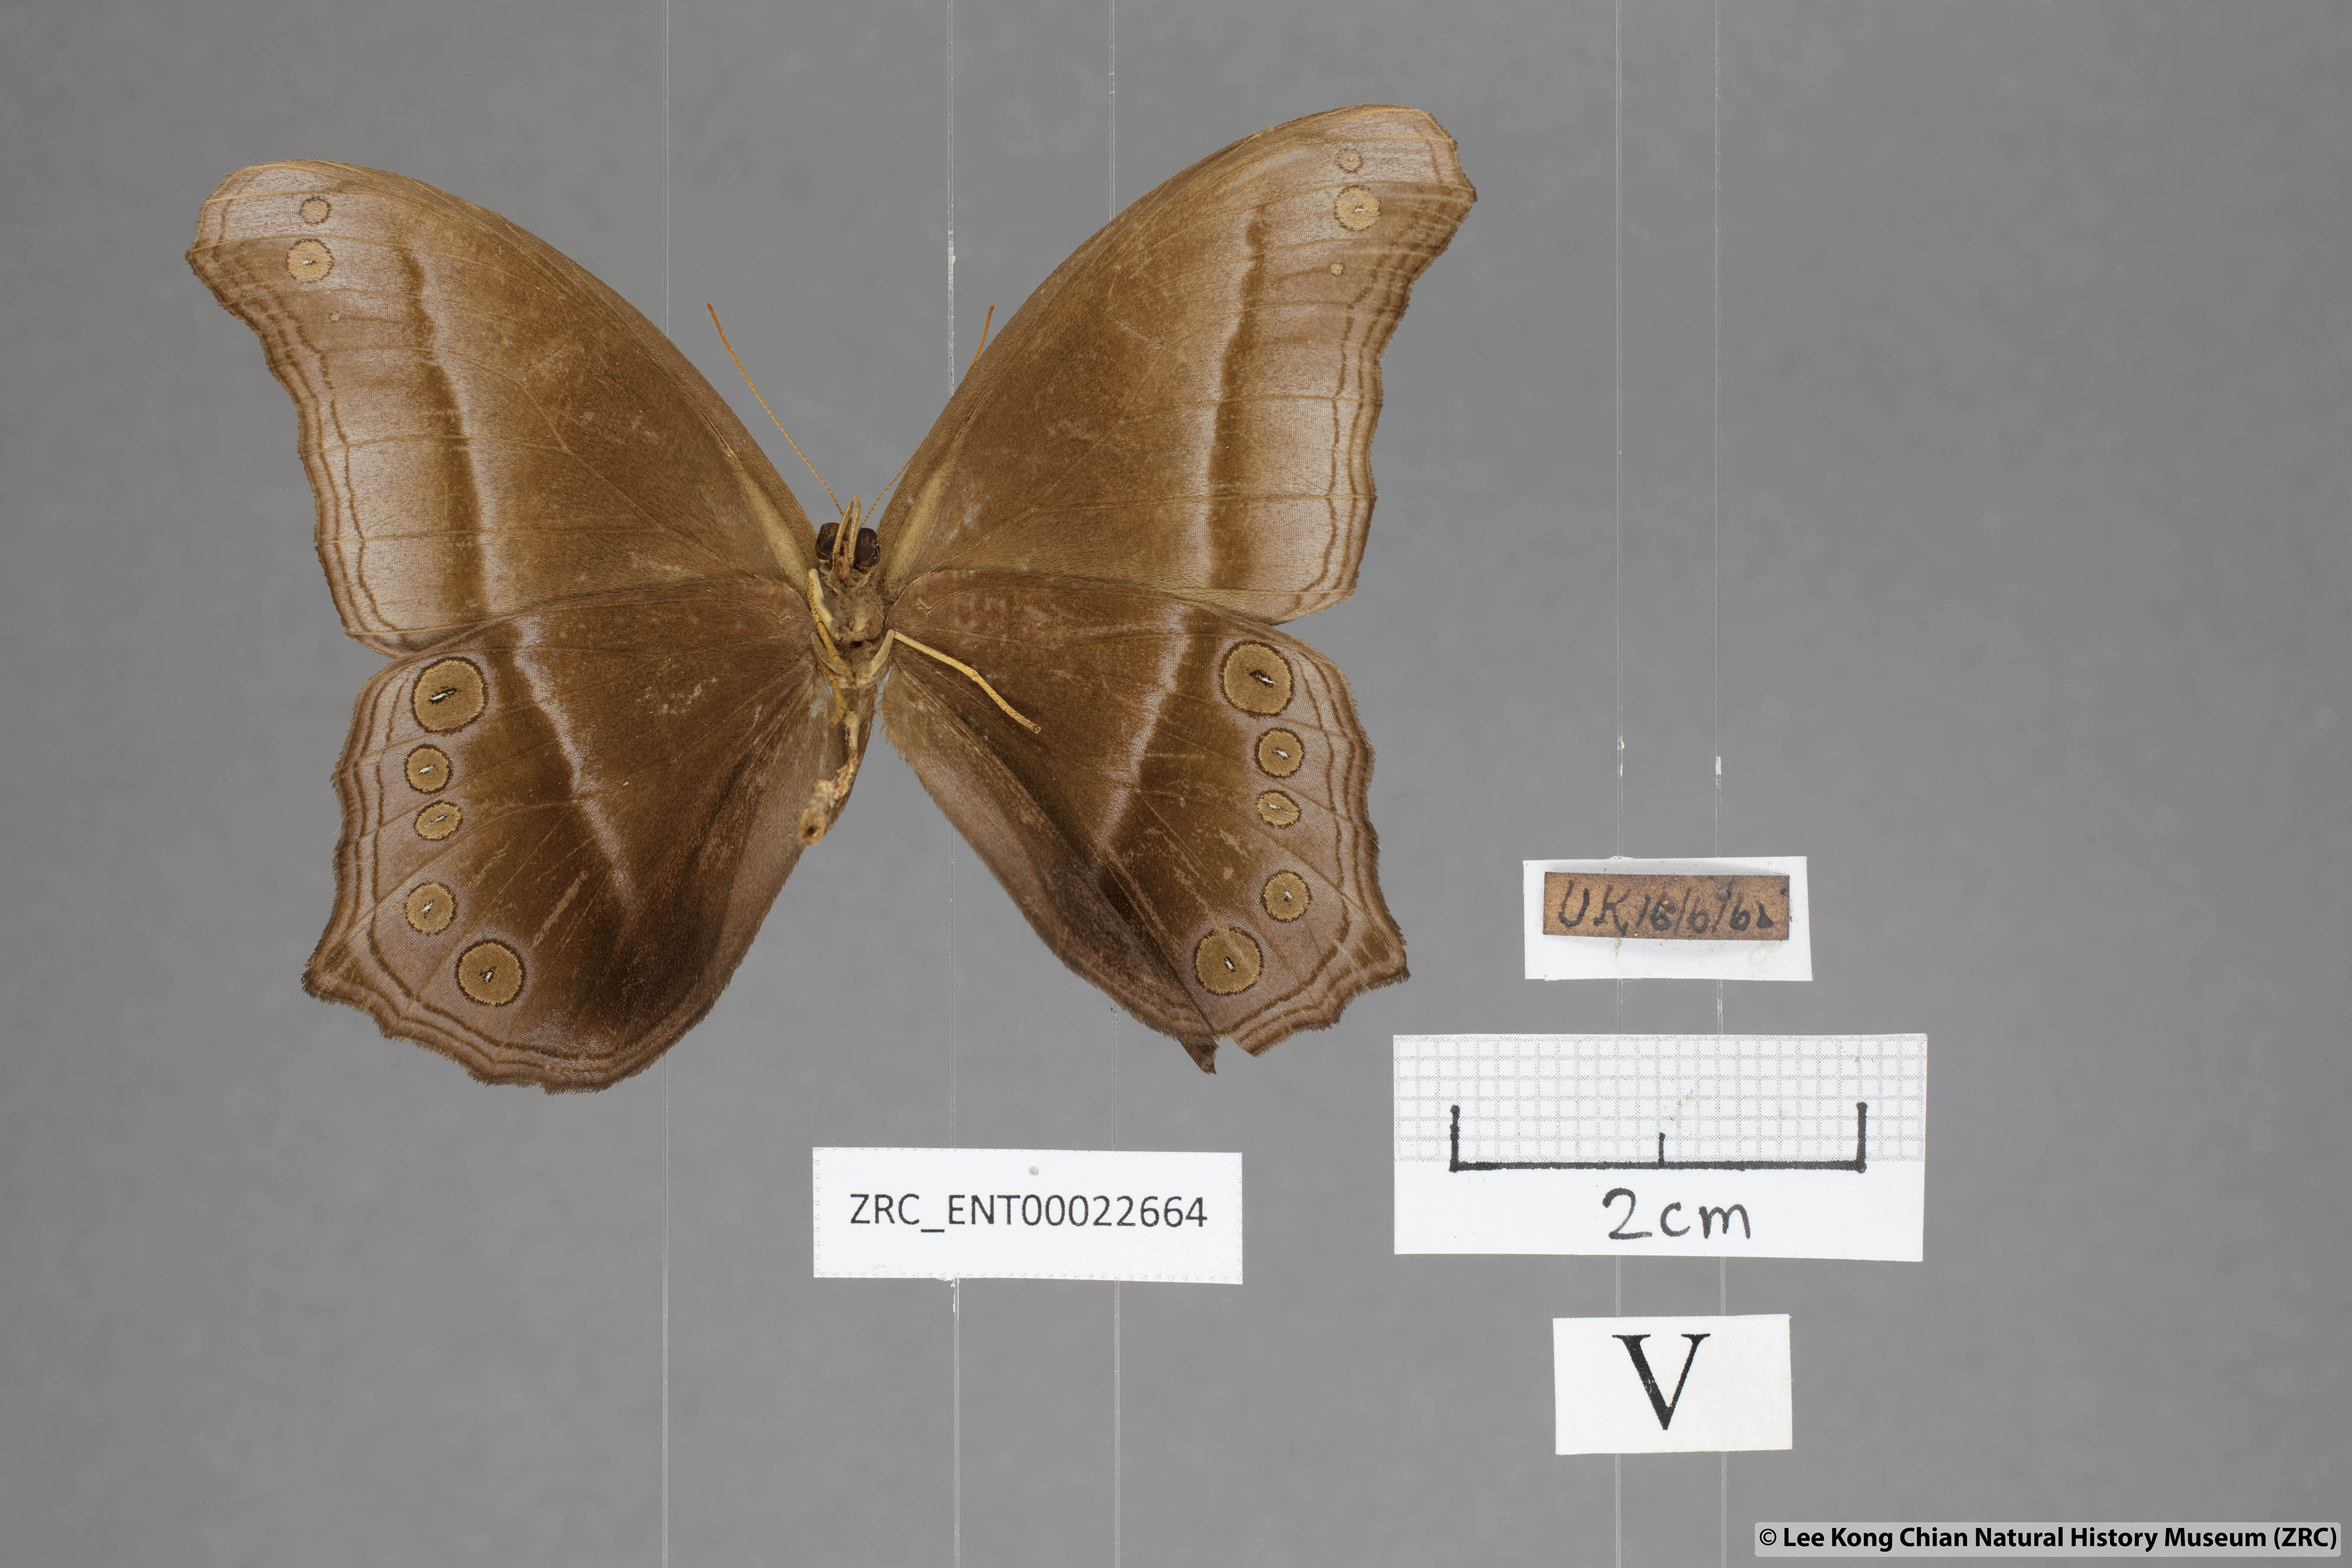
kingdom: Animalia
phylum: Arthropoda
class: Insecta
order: Lepidoptera
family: Nymphalidae
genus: Coelites
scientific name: Coelites epiminthia
